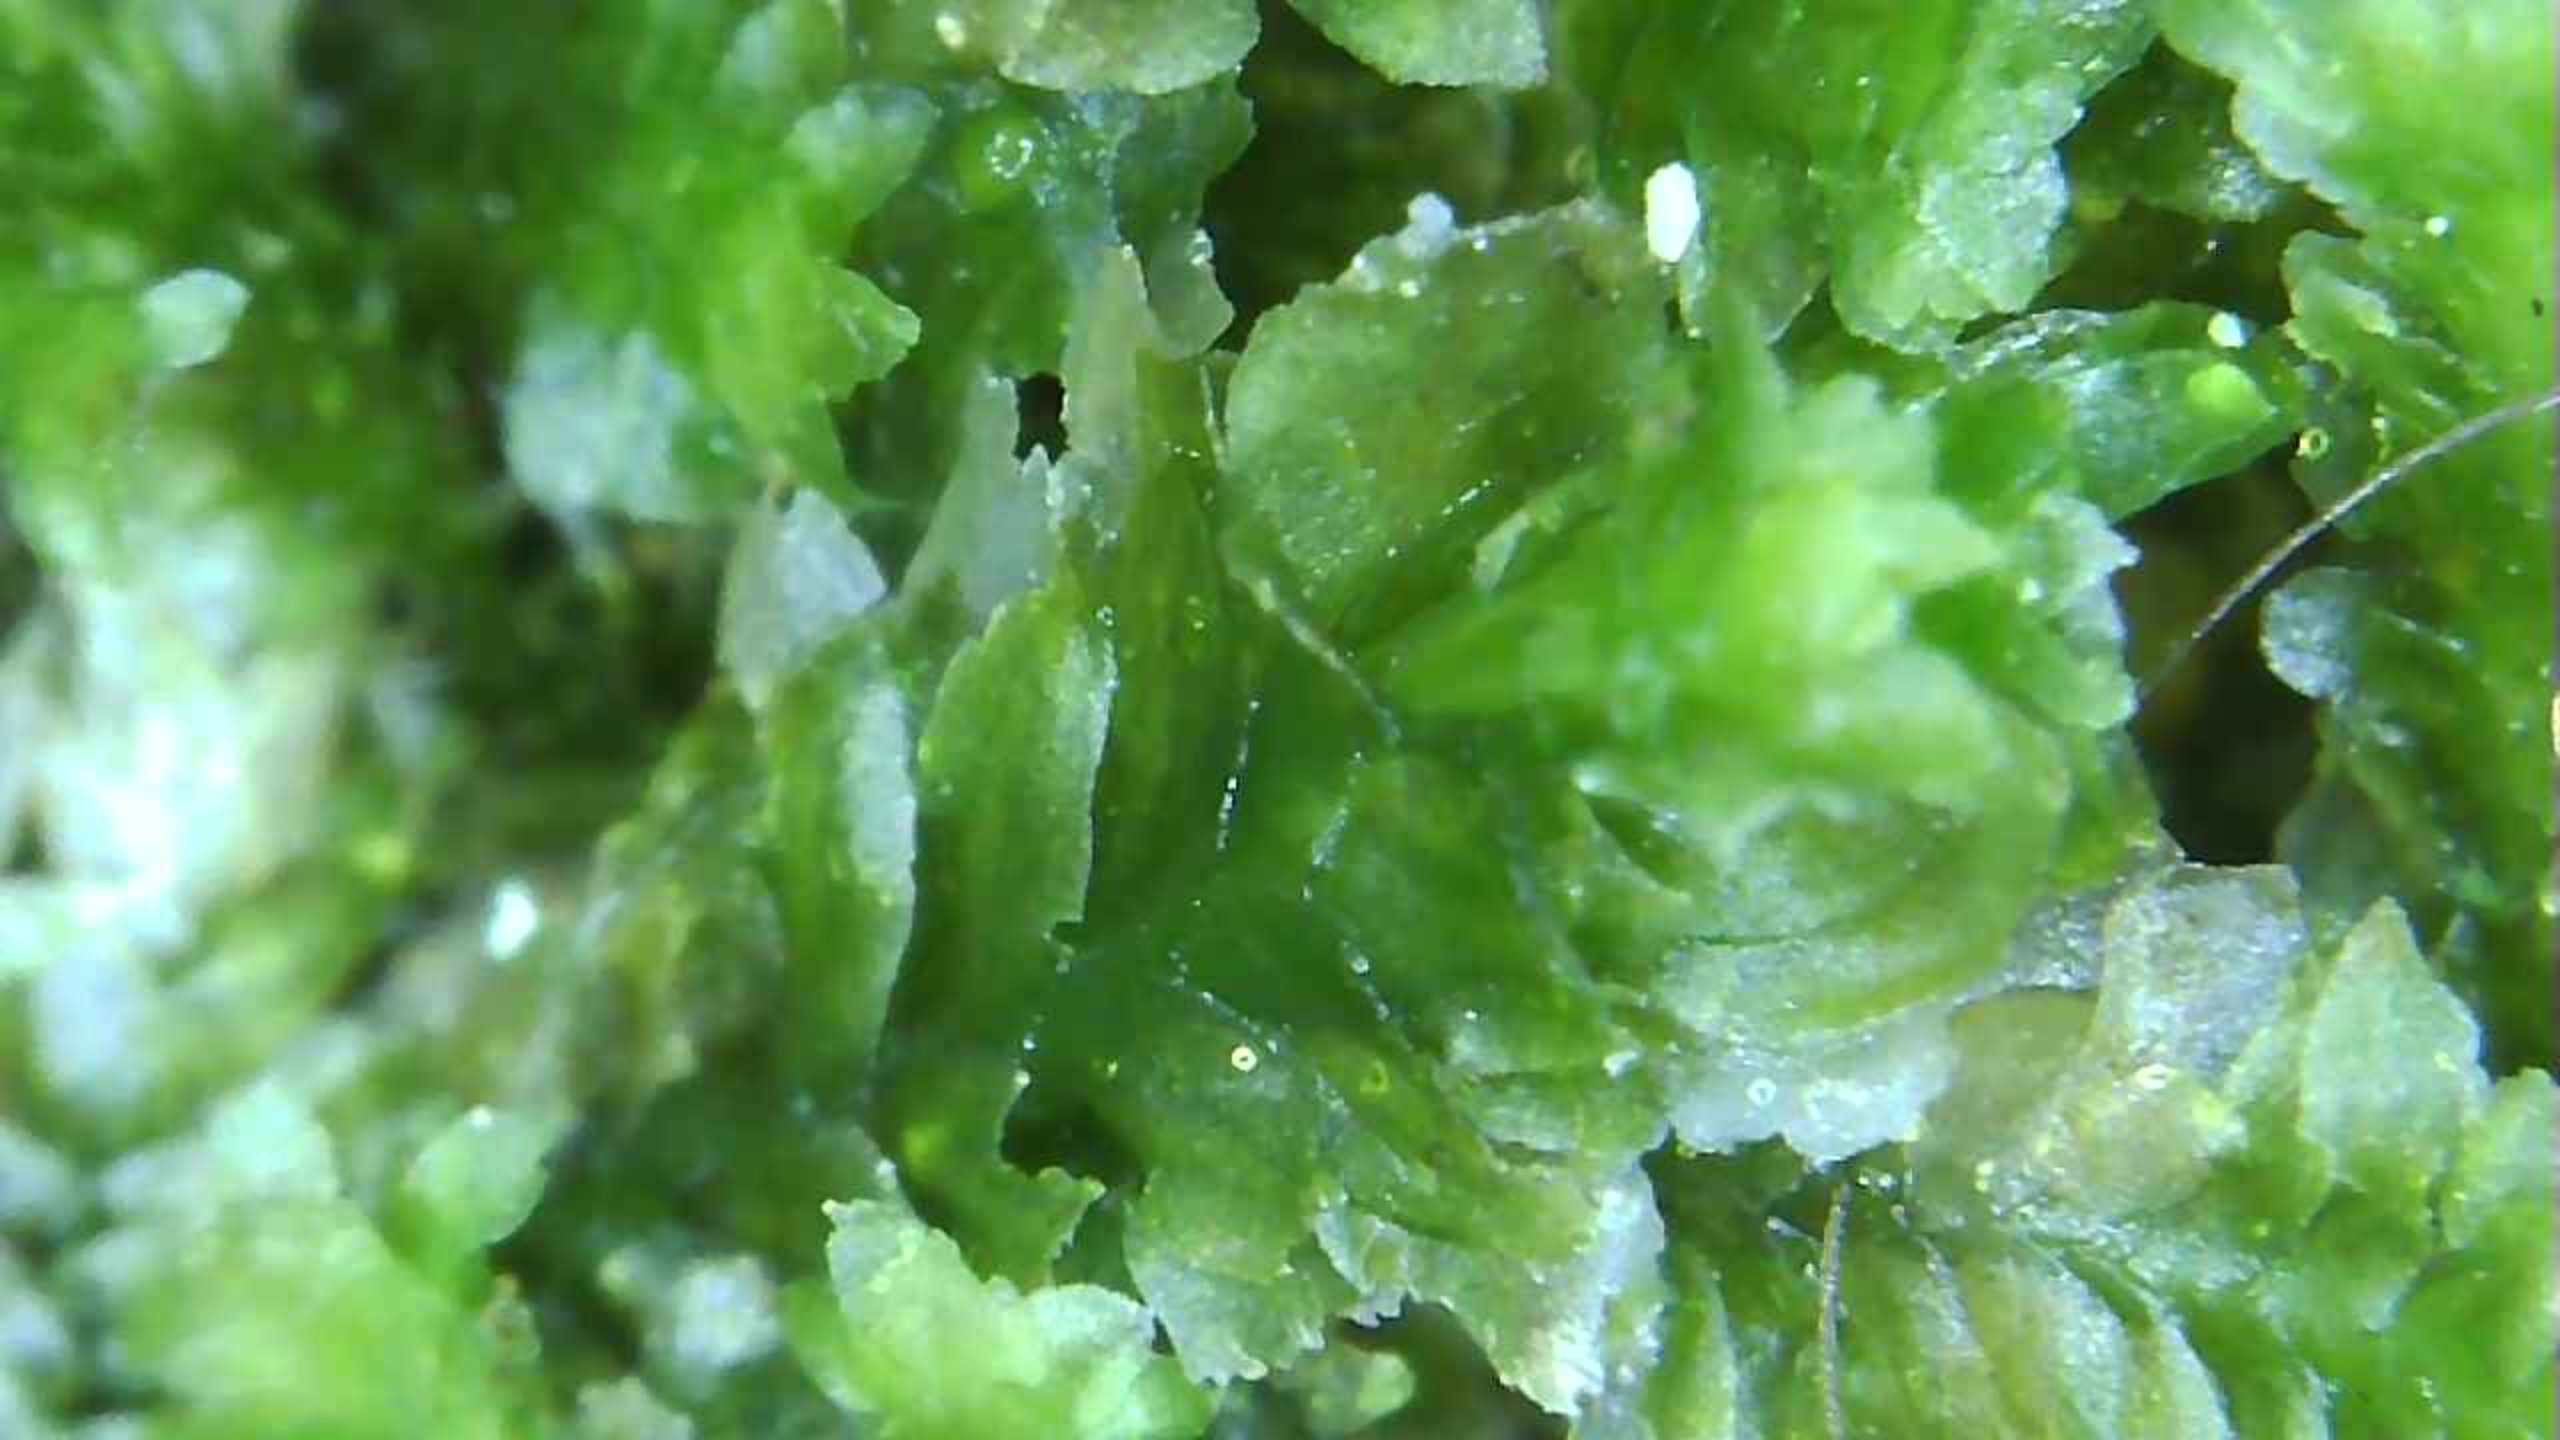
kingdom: Plantae
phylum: Marchantiophyta
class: Jungermanniopsida
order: Jungermanniales
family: Scapaniaceae
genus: Diplophyllum
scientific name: Diplophyllum albicans
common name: Stribet dobbeltblad
